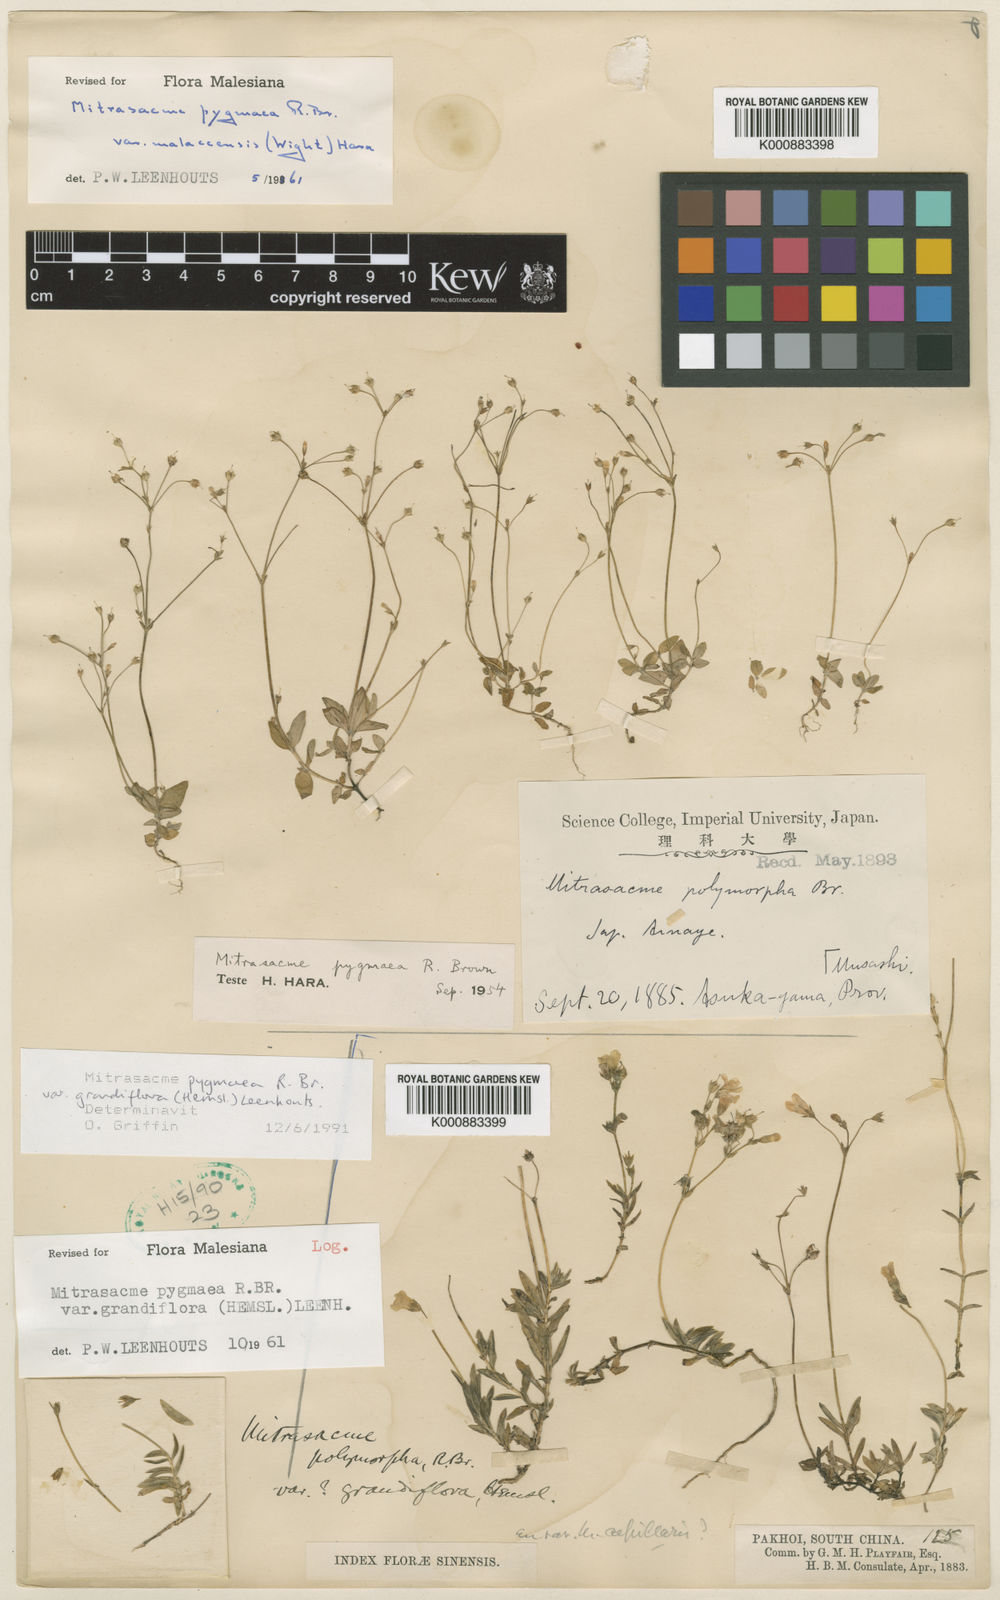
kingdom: Plantae
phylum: Tracheophyta
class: Magnoliopsida
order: Gentianales
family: Loganiaceae
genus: Mitrasacme
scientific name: Mitrasacme pygmaea
